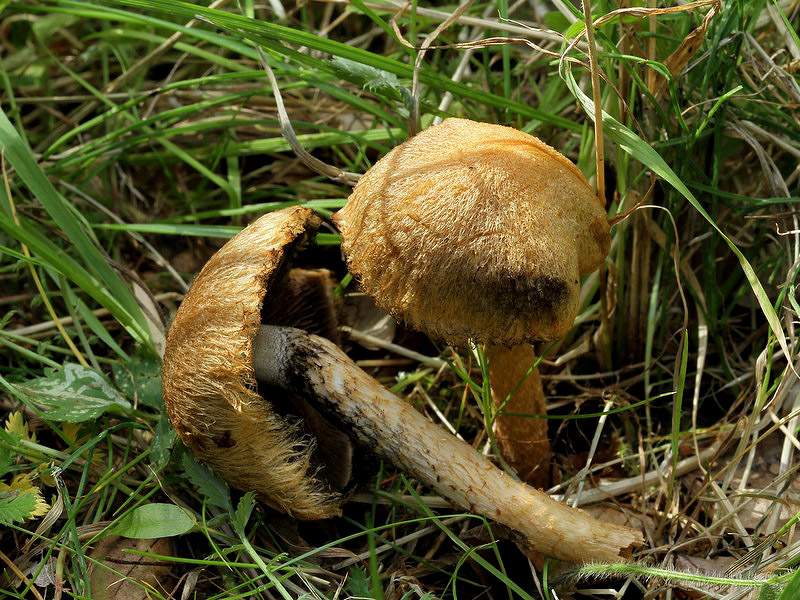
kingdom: Fungi
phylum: Basidiomycota
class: Agaricomycetes
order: Agaricales
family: Psathyrellaceae
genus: Lacrymaria
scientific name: Lacrymaria pyrotricha
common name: ildhåret mørkhat
